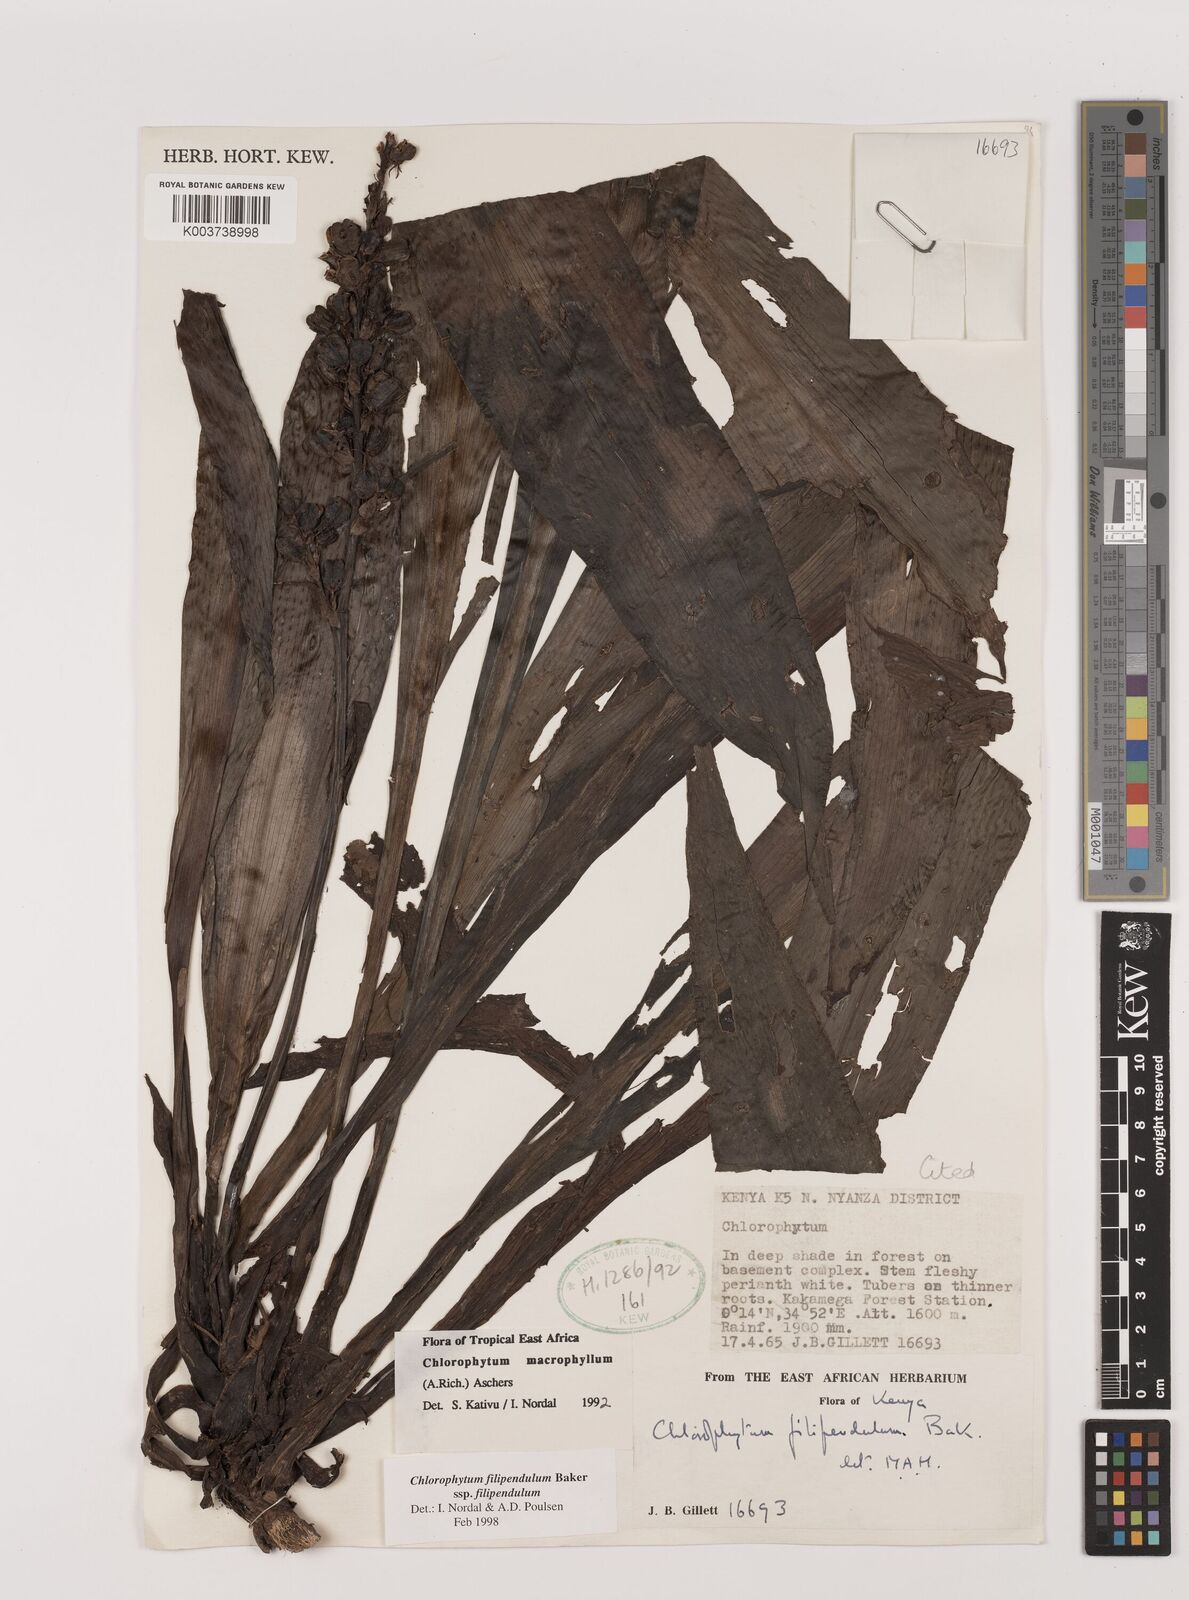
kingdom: Plantae
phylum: Tracheophyta
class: Liliopsida
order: Asparagales
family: Asparagaceae
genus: Chlorophytum
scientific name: Chlorophytum filipendulum
